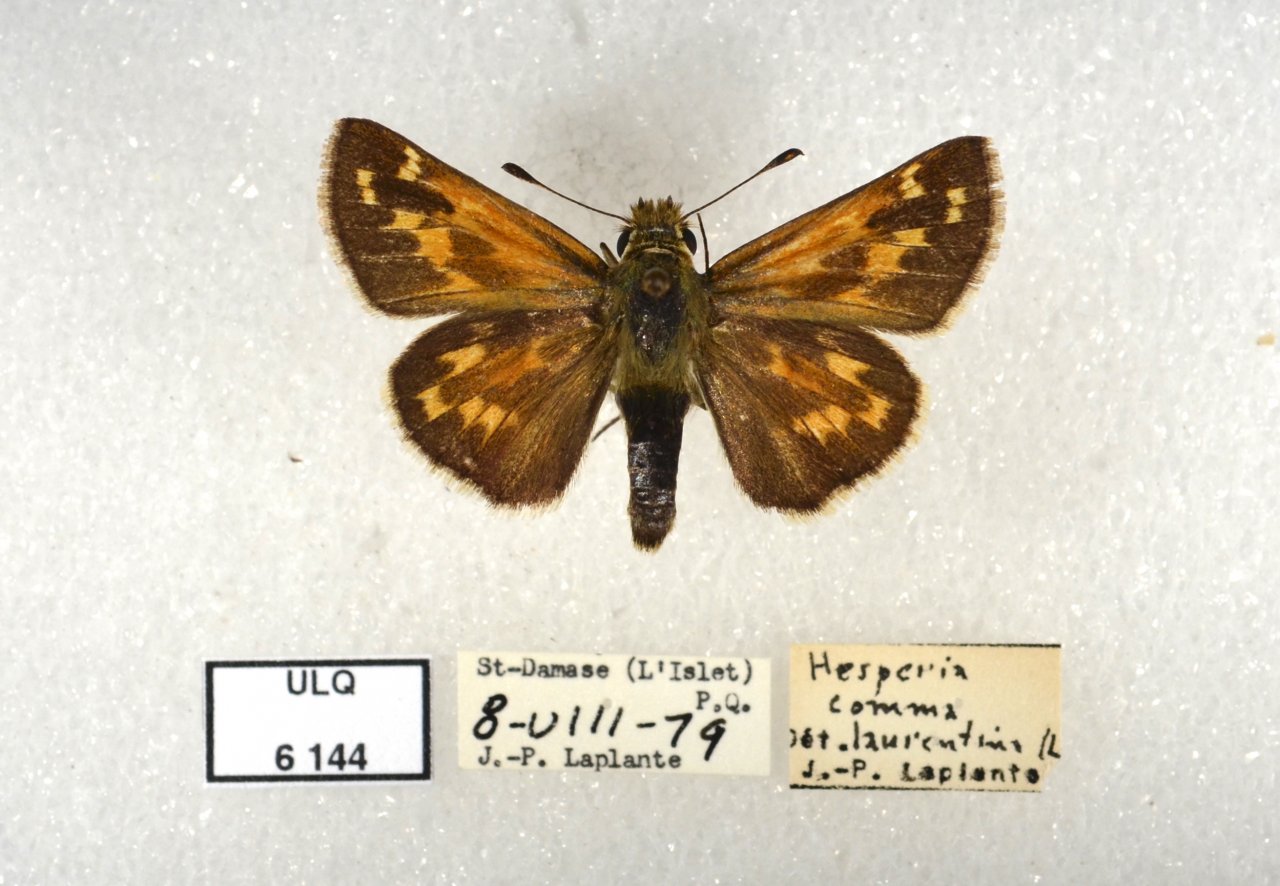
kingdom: Animalia
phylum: Arthropoda
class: Insecta
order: Lepidoptera
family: Hesperiidae
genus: Hesperia
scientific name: Hesperia comma
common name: Common Branded Skipper
